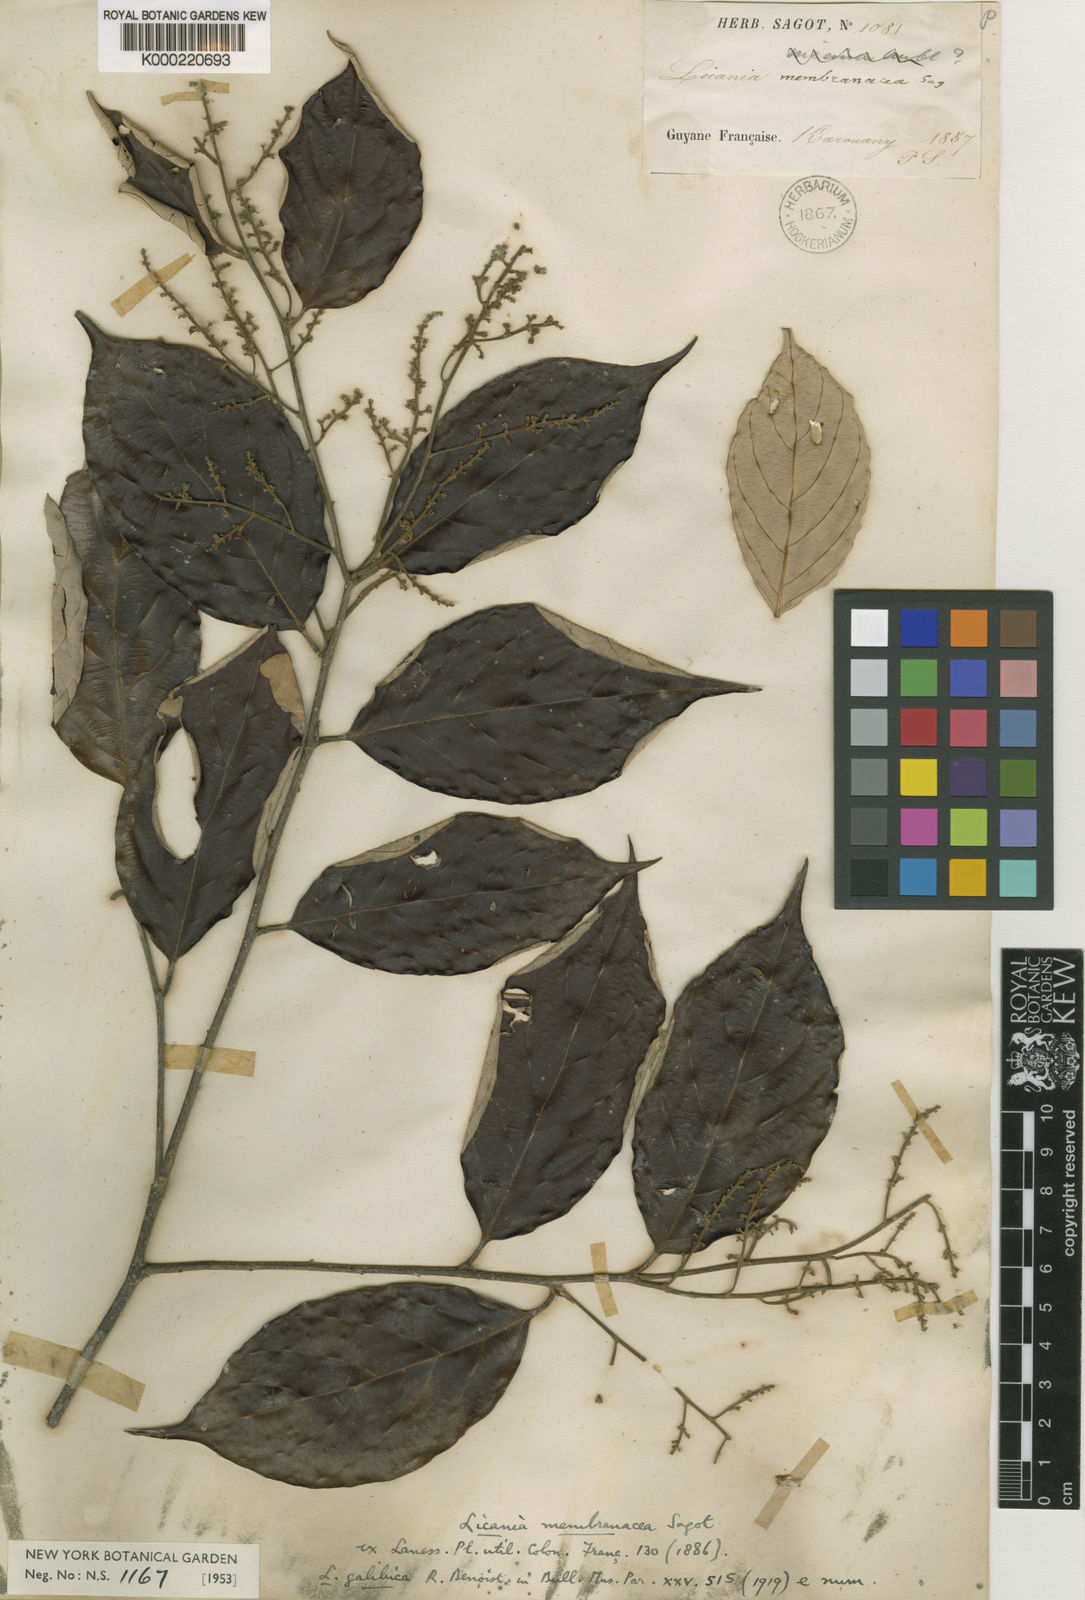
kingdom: Plantae
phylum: Tracheophyta
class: Magnoliopsida
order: Malpighiales
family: Chrysobalanaceae
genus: Licania
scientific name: Licania membranacea
